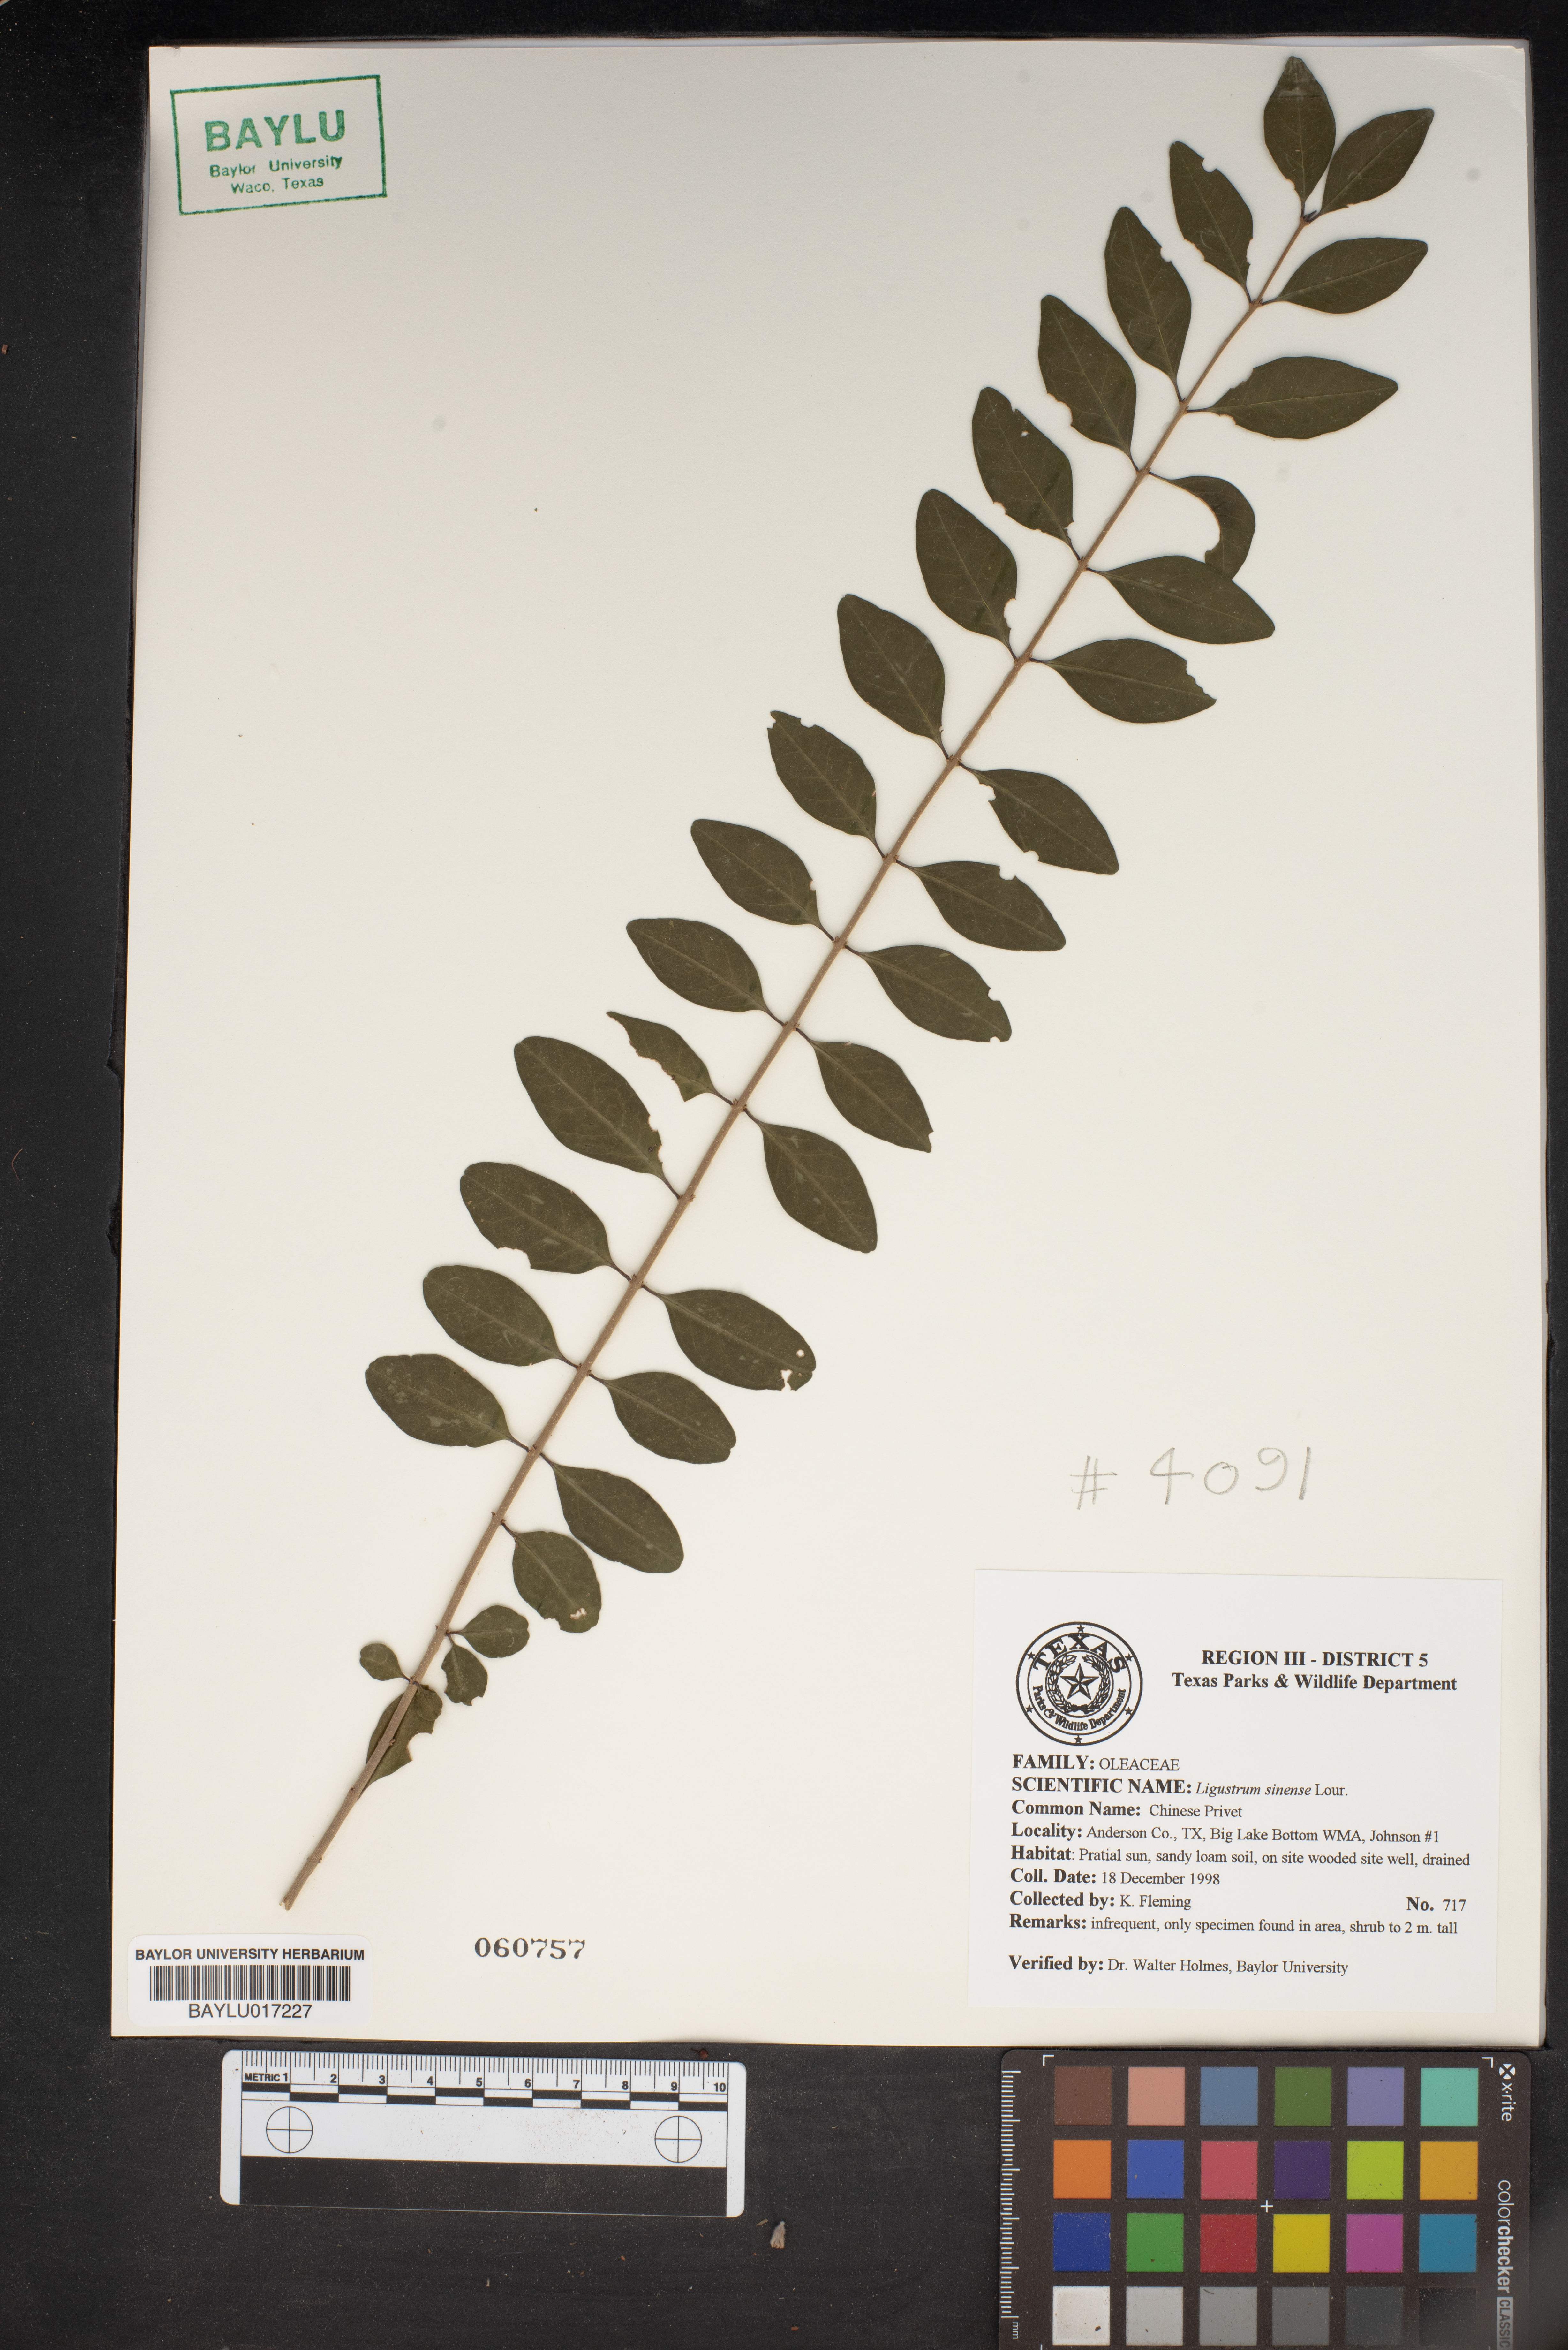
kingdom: Plantae
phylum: Tracheophyta
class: Magnoliopsida
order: Lamiales
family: Oleaceae
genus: Ligustrum
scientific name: Ligustrum sinense
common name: Chinese privet
